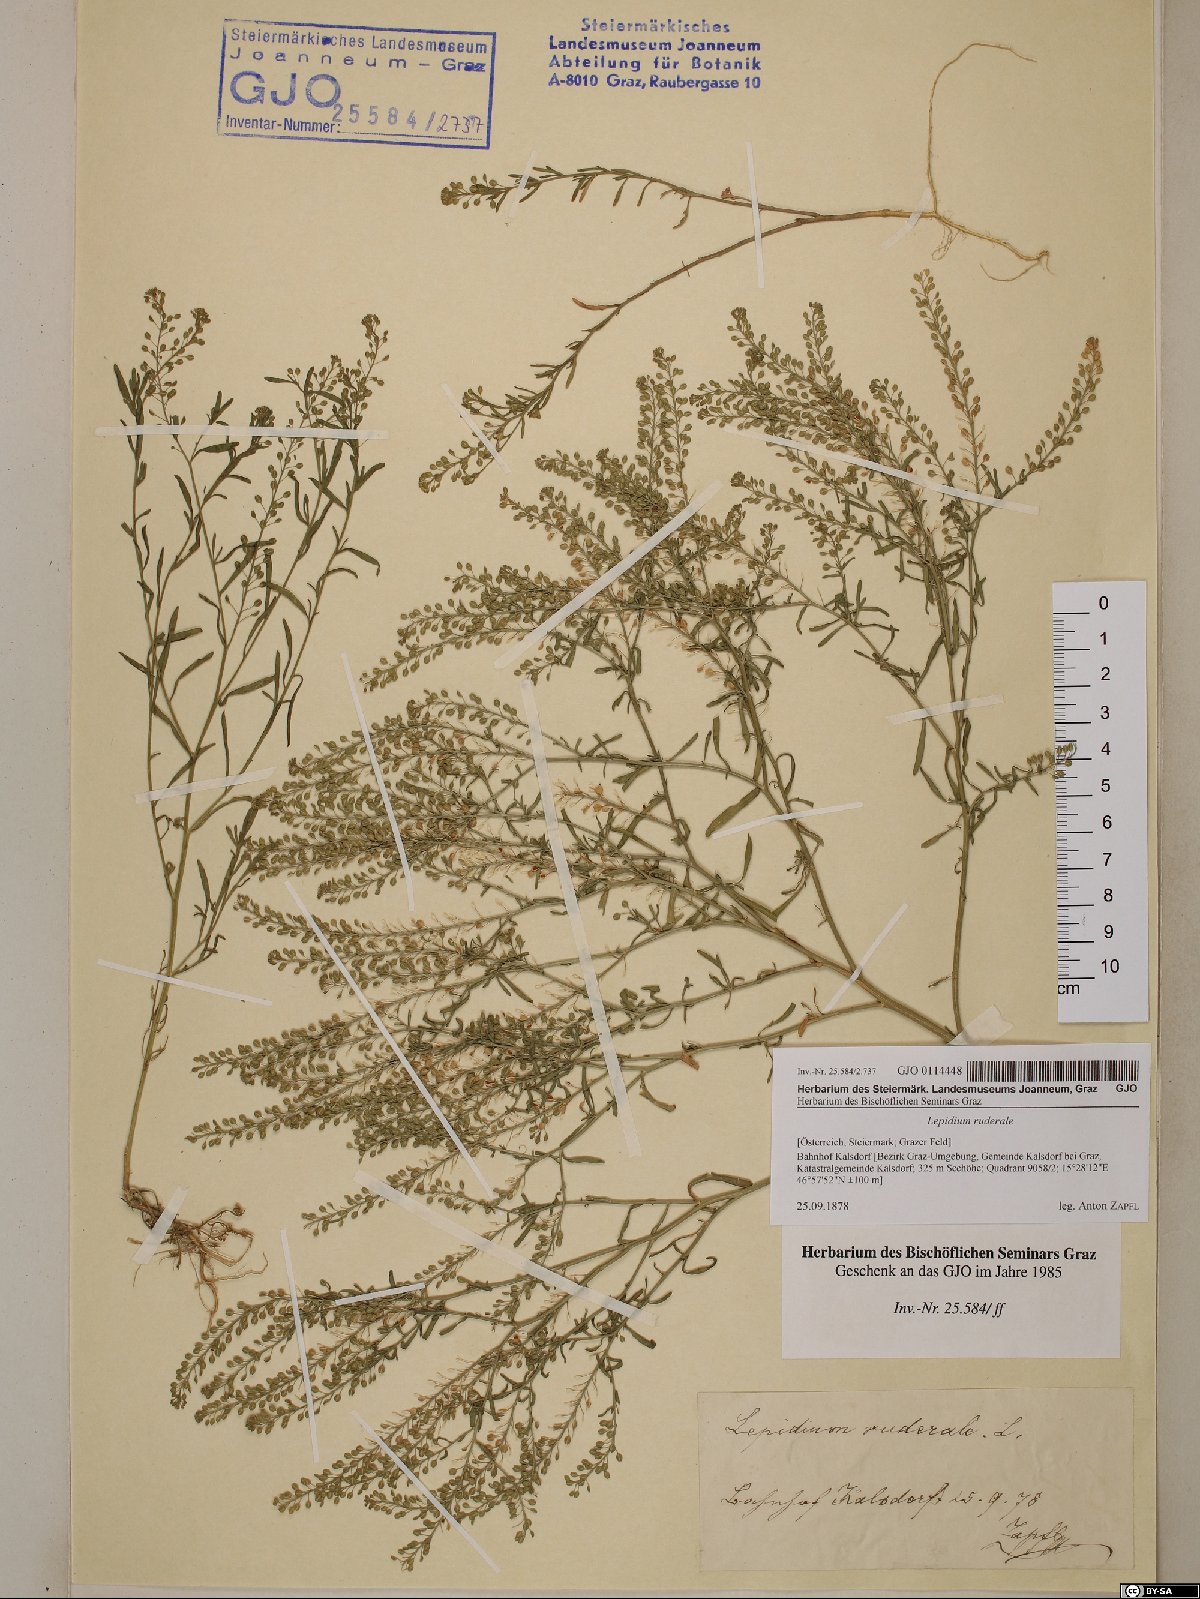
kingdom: Plantae
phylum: Tracheophyta
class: Magnoliopsida
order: Brassicales
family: Brassicaceae
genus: Lepidium
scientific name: Lepidium ruderale
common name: Narrow-leaved pepperwort
